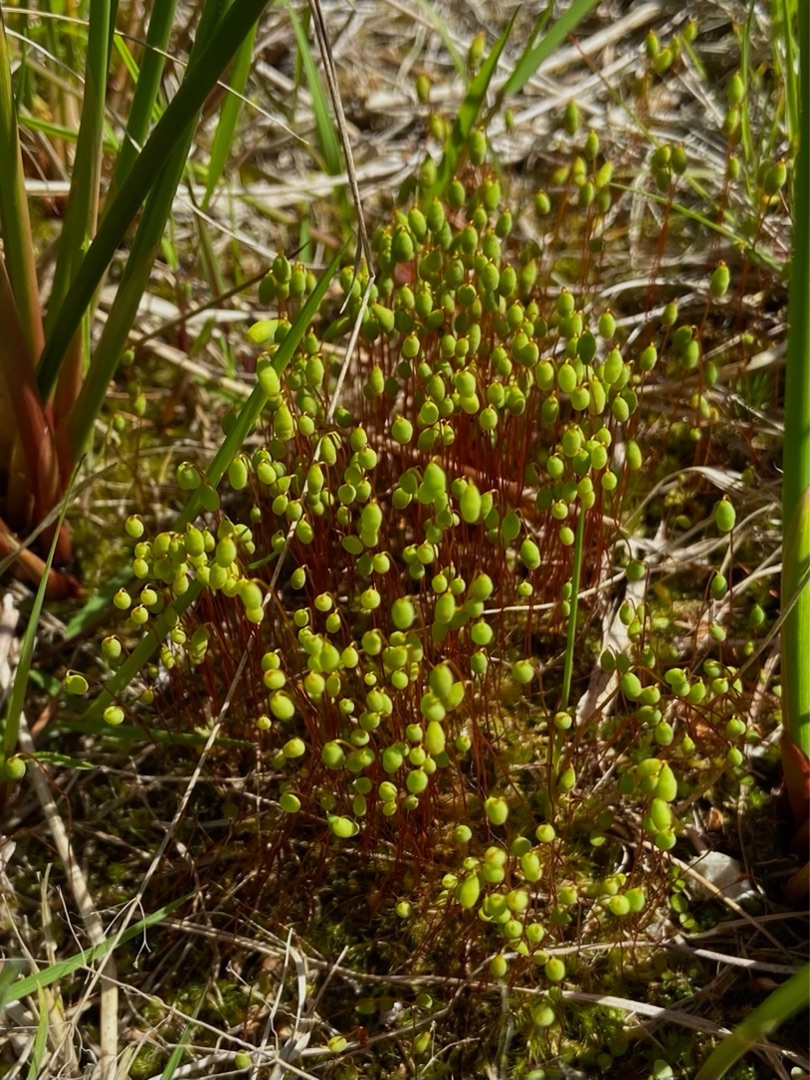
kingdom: Plantae
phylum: Bryophyta
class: Bryopsida
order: Bryales
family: Bryaceae
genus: Bryum
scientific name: Bryum
